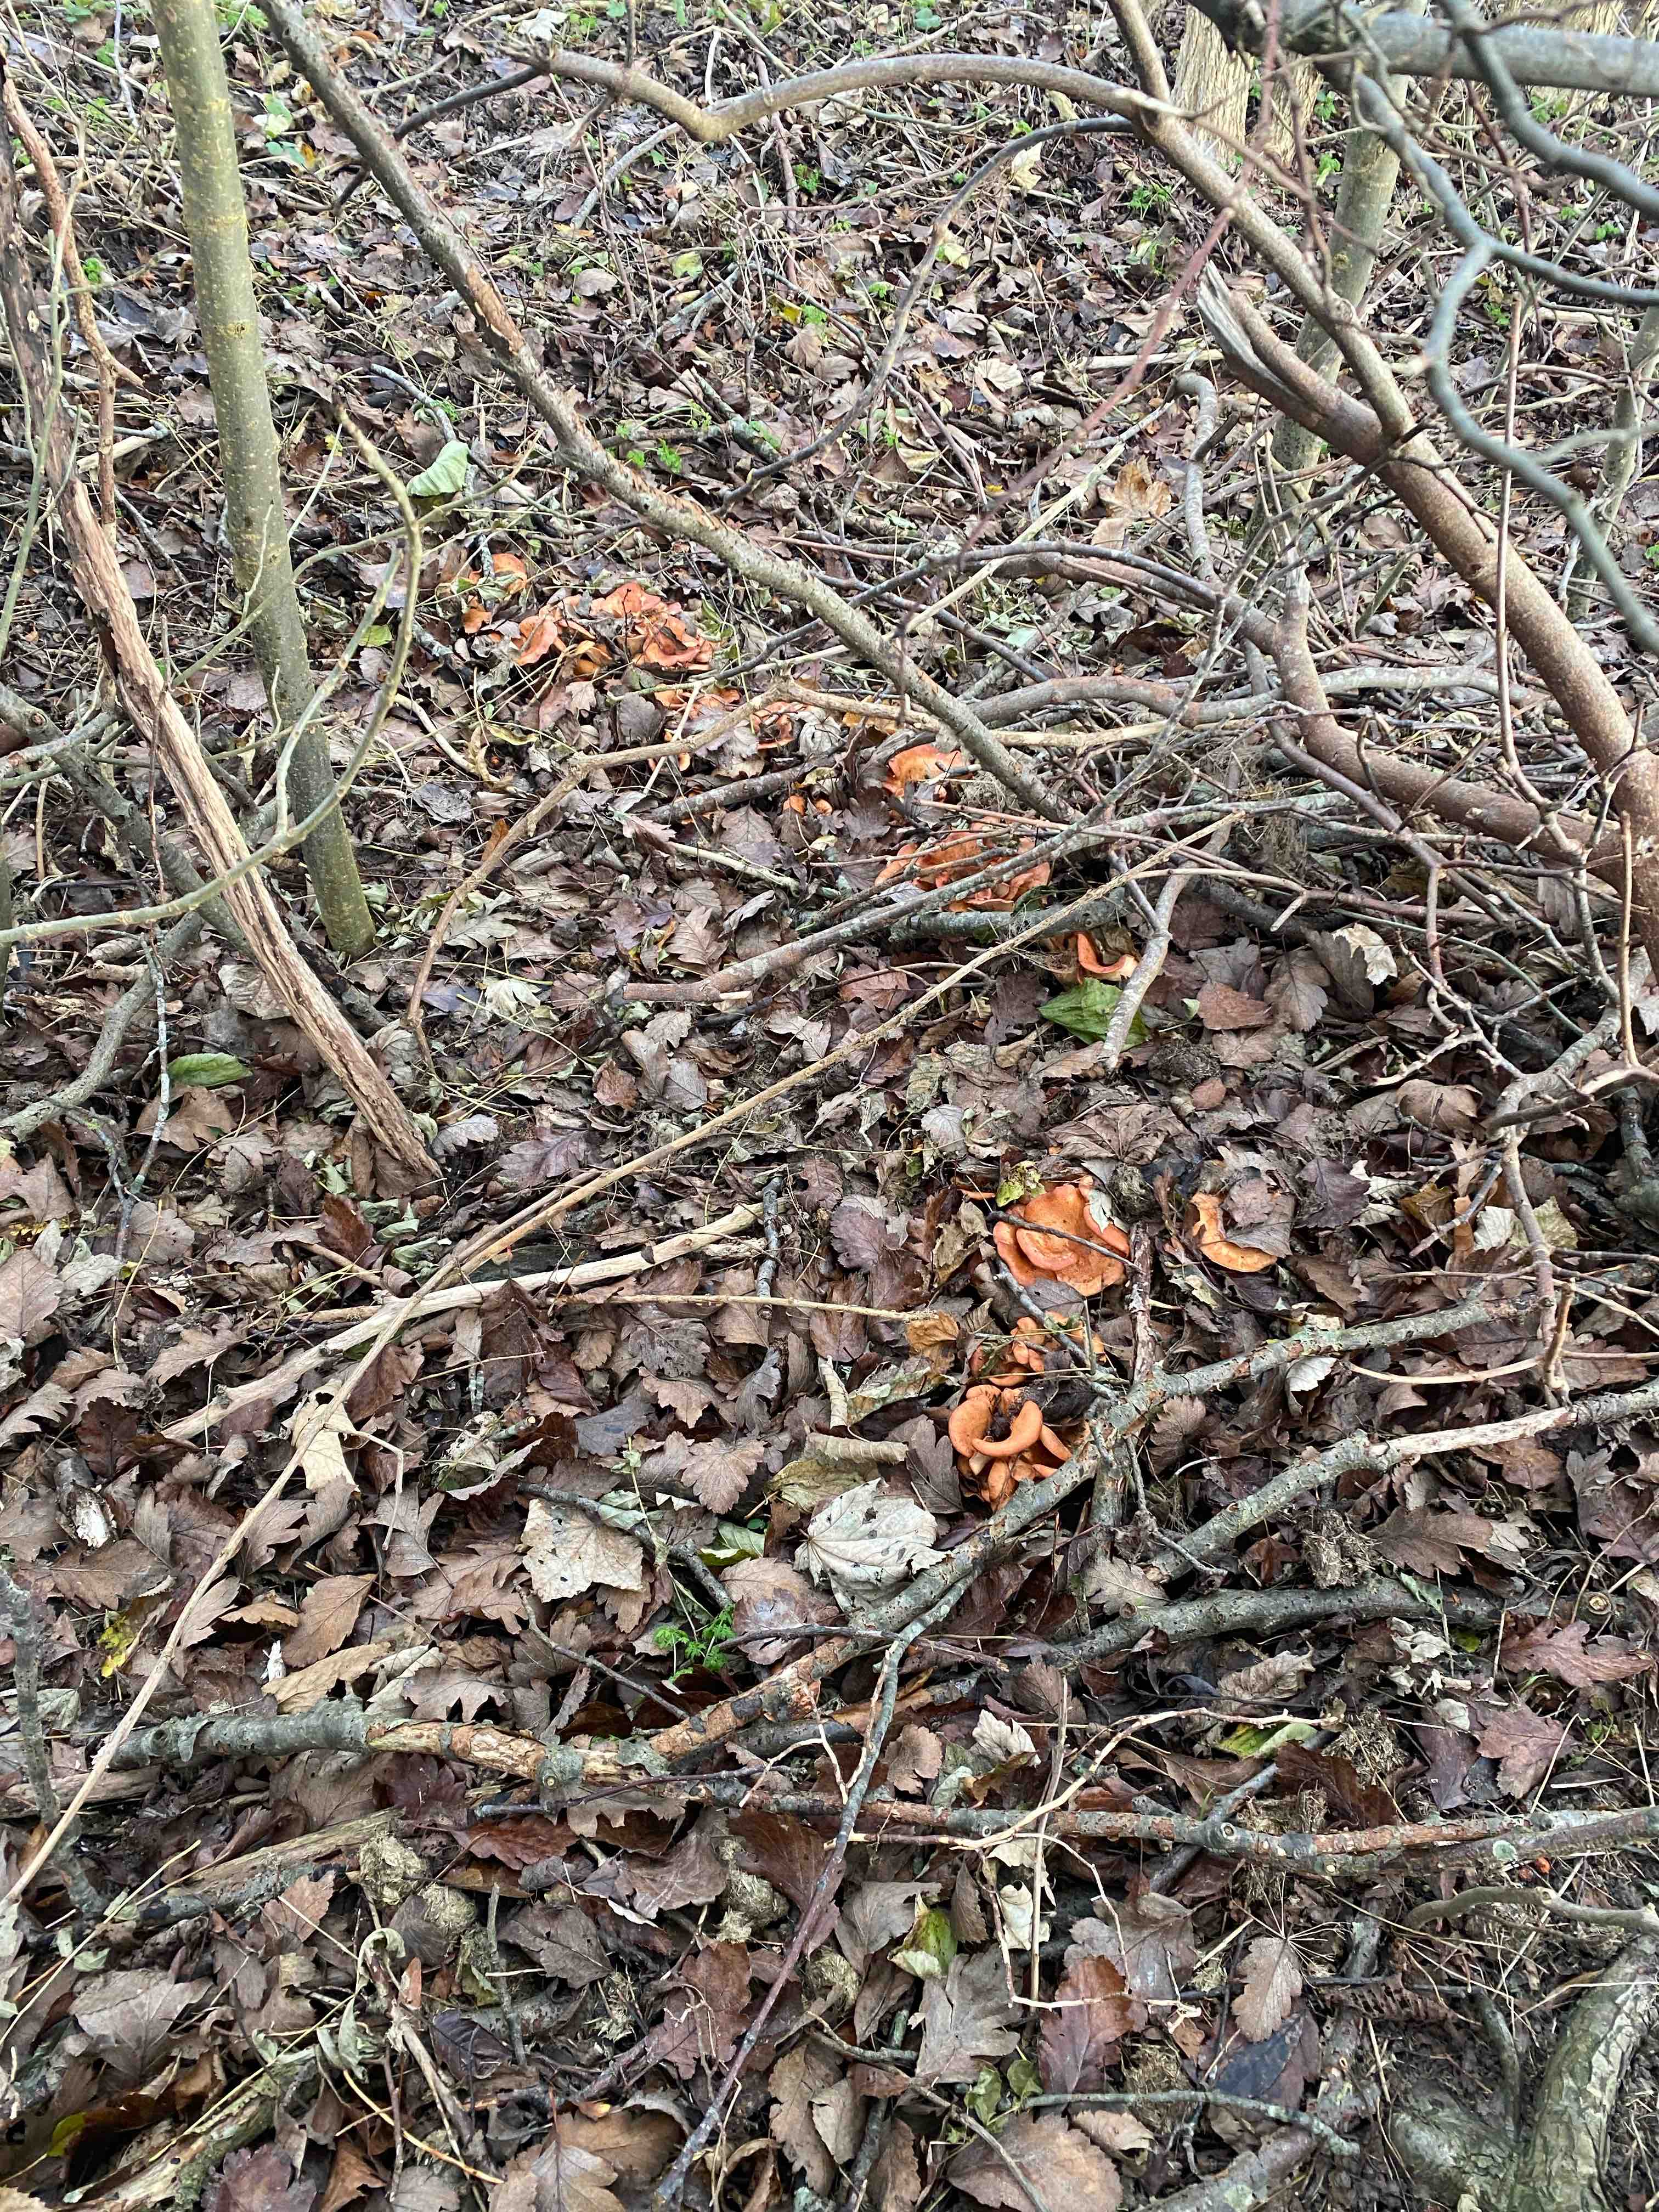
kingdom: Fungi
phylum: Basidiomycota
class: Agaricomycetes
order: Agaricales
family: Tricholomataceae
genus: Paralepista
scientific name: Paralepista flaccida
